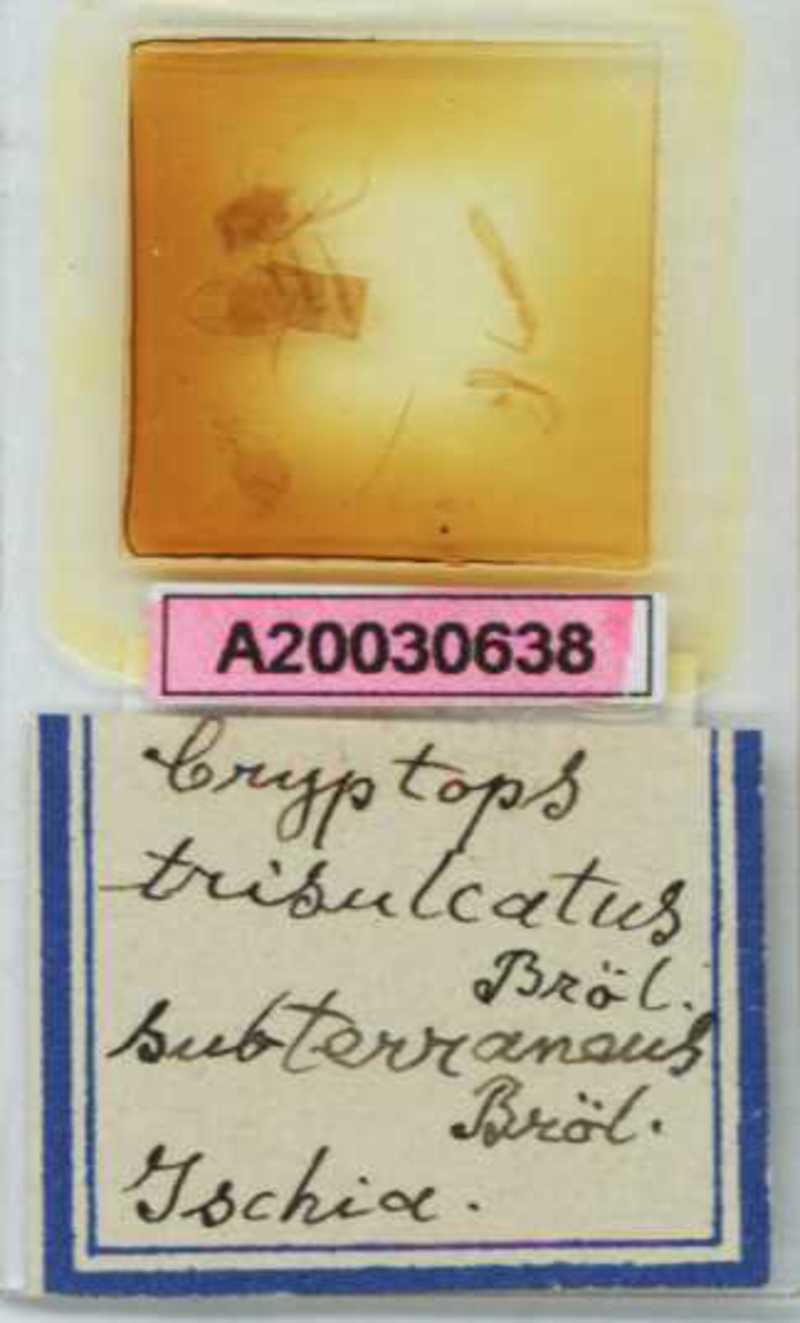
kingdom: Animalia
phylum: Arthropoda
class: Chilopoda
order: Scolopendromorpha
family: Cryptopidae
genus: Cryptops
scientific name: Cryptops trisulcatus
